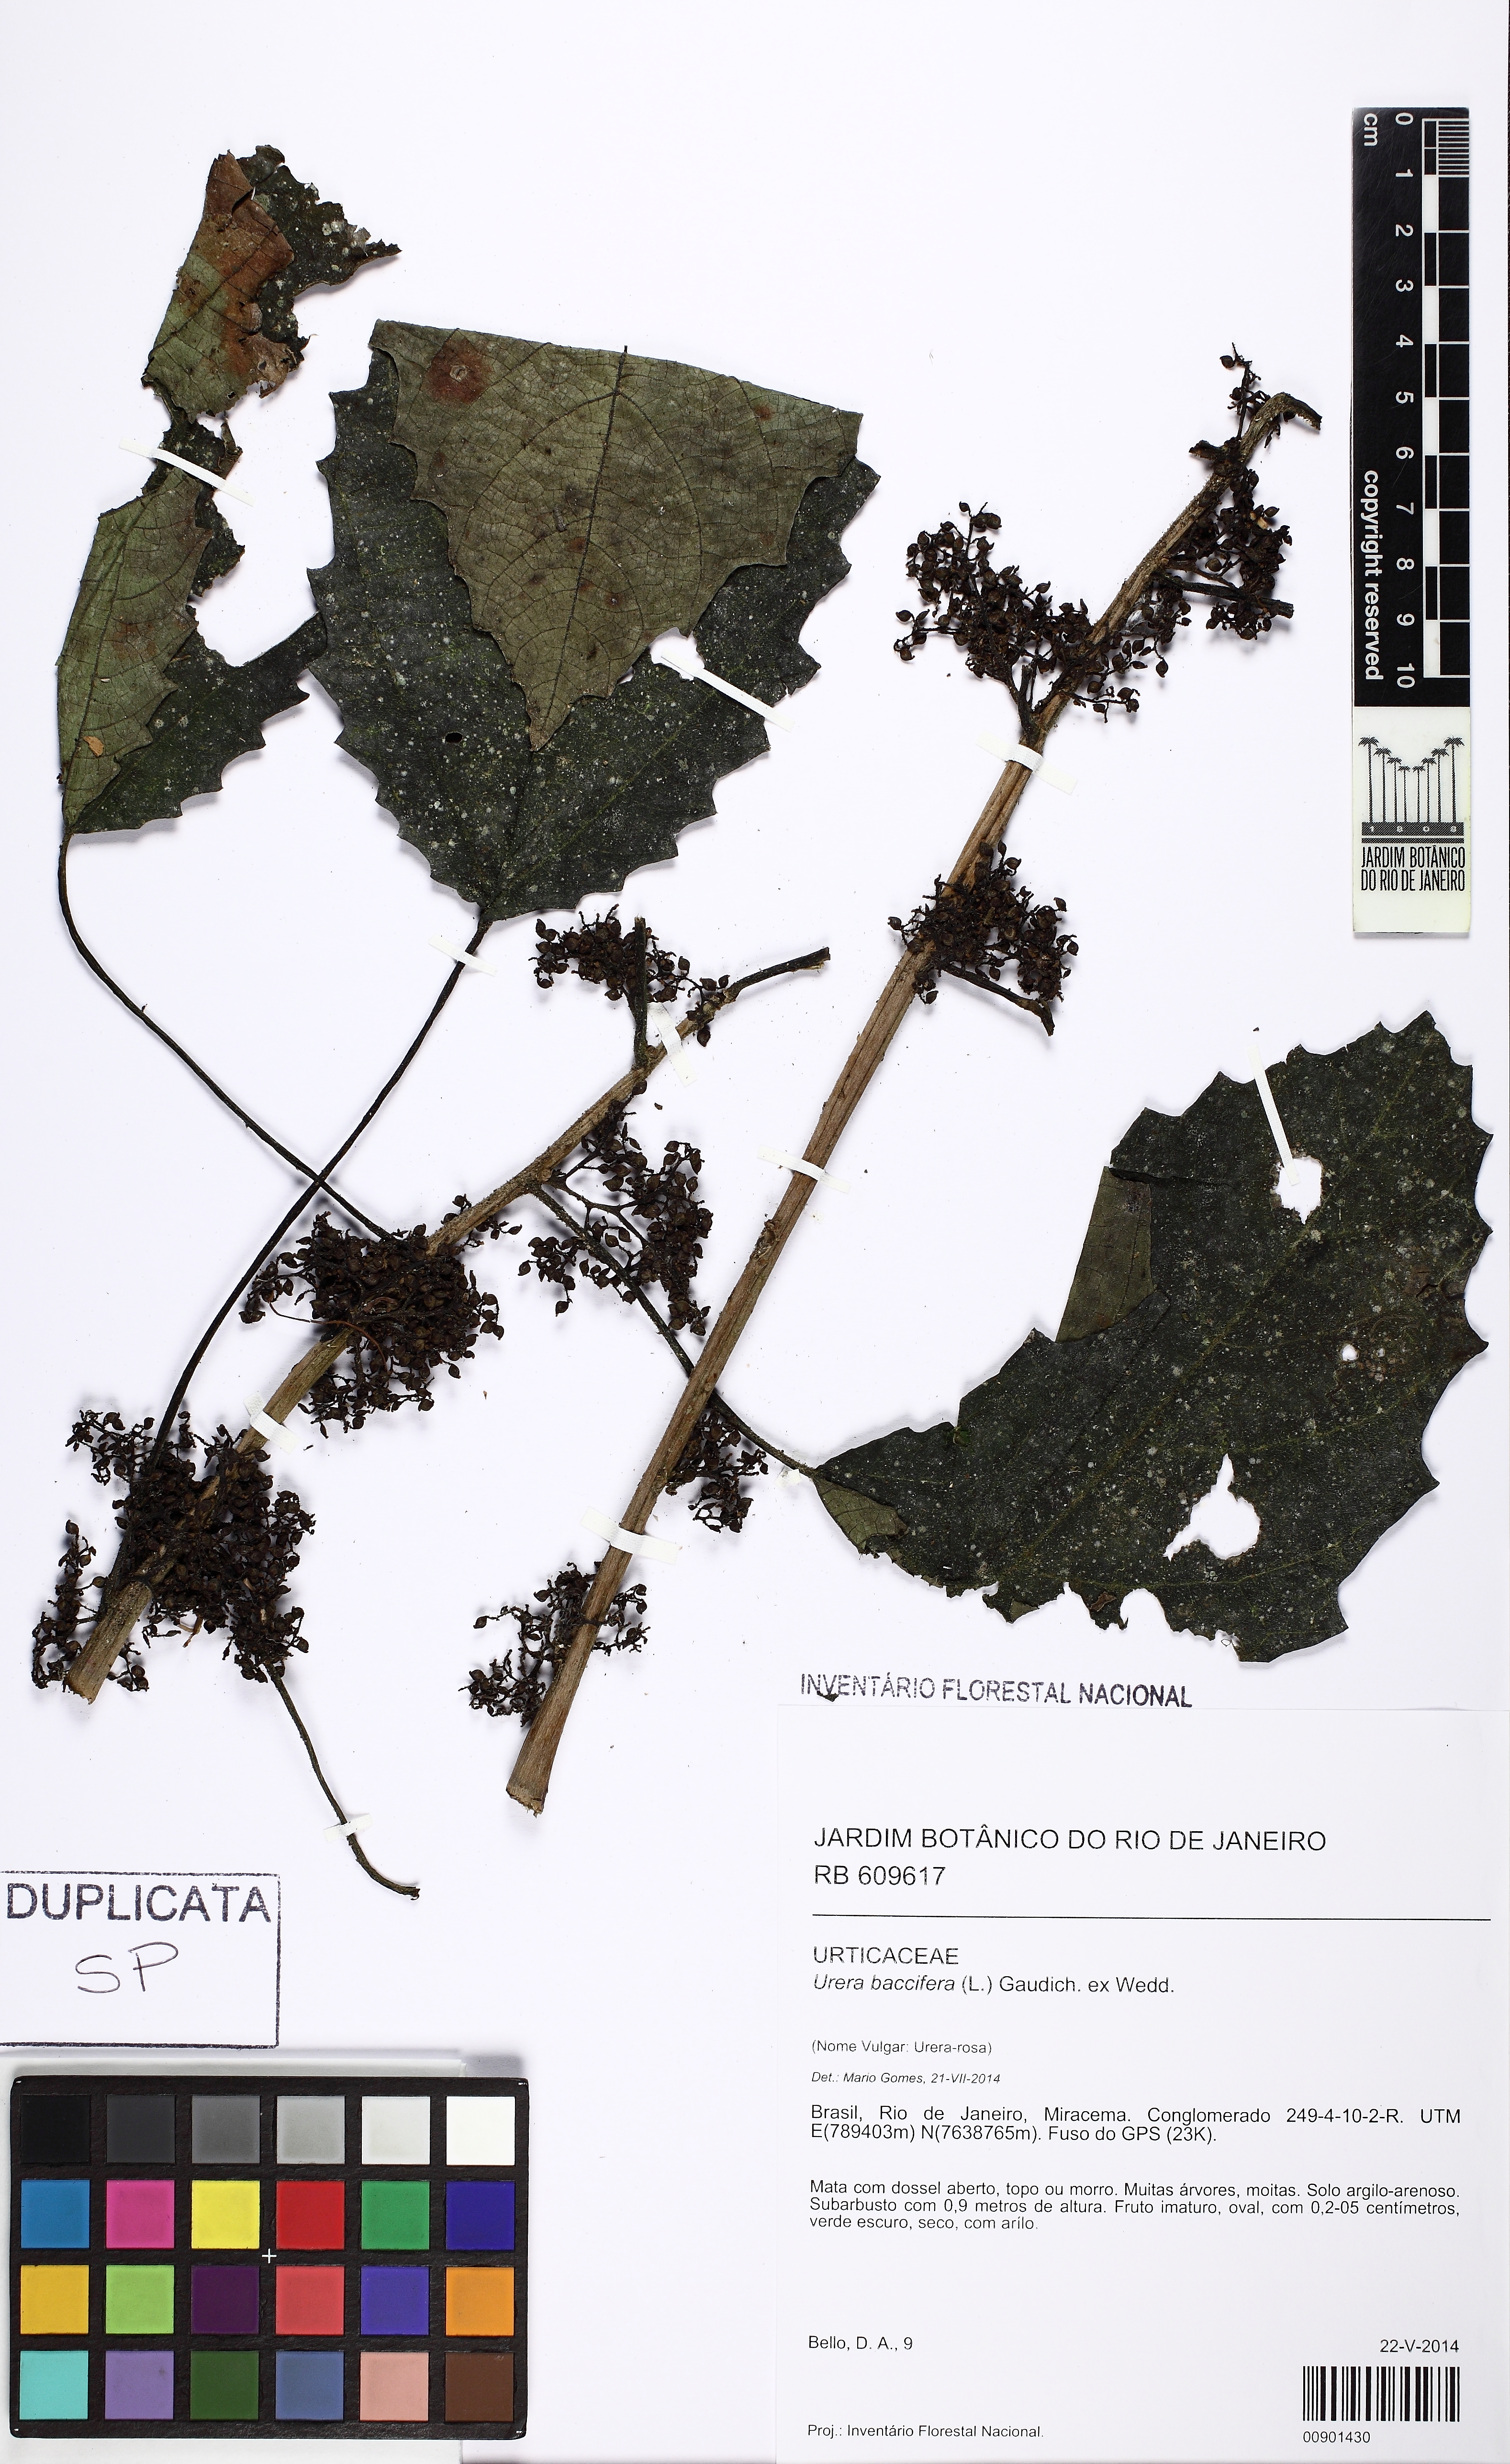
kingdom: Plantae
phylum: Tracheophyta
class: Magnoliopsida
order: Rosales
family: Urticaceae
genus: Urera
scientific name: Urera baccifera
